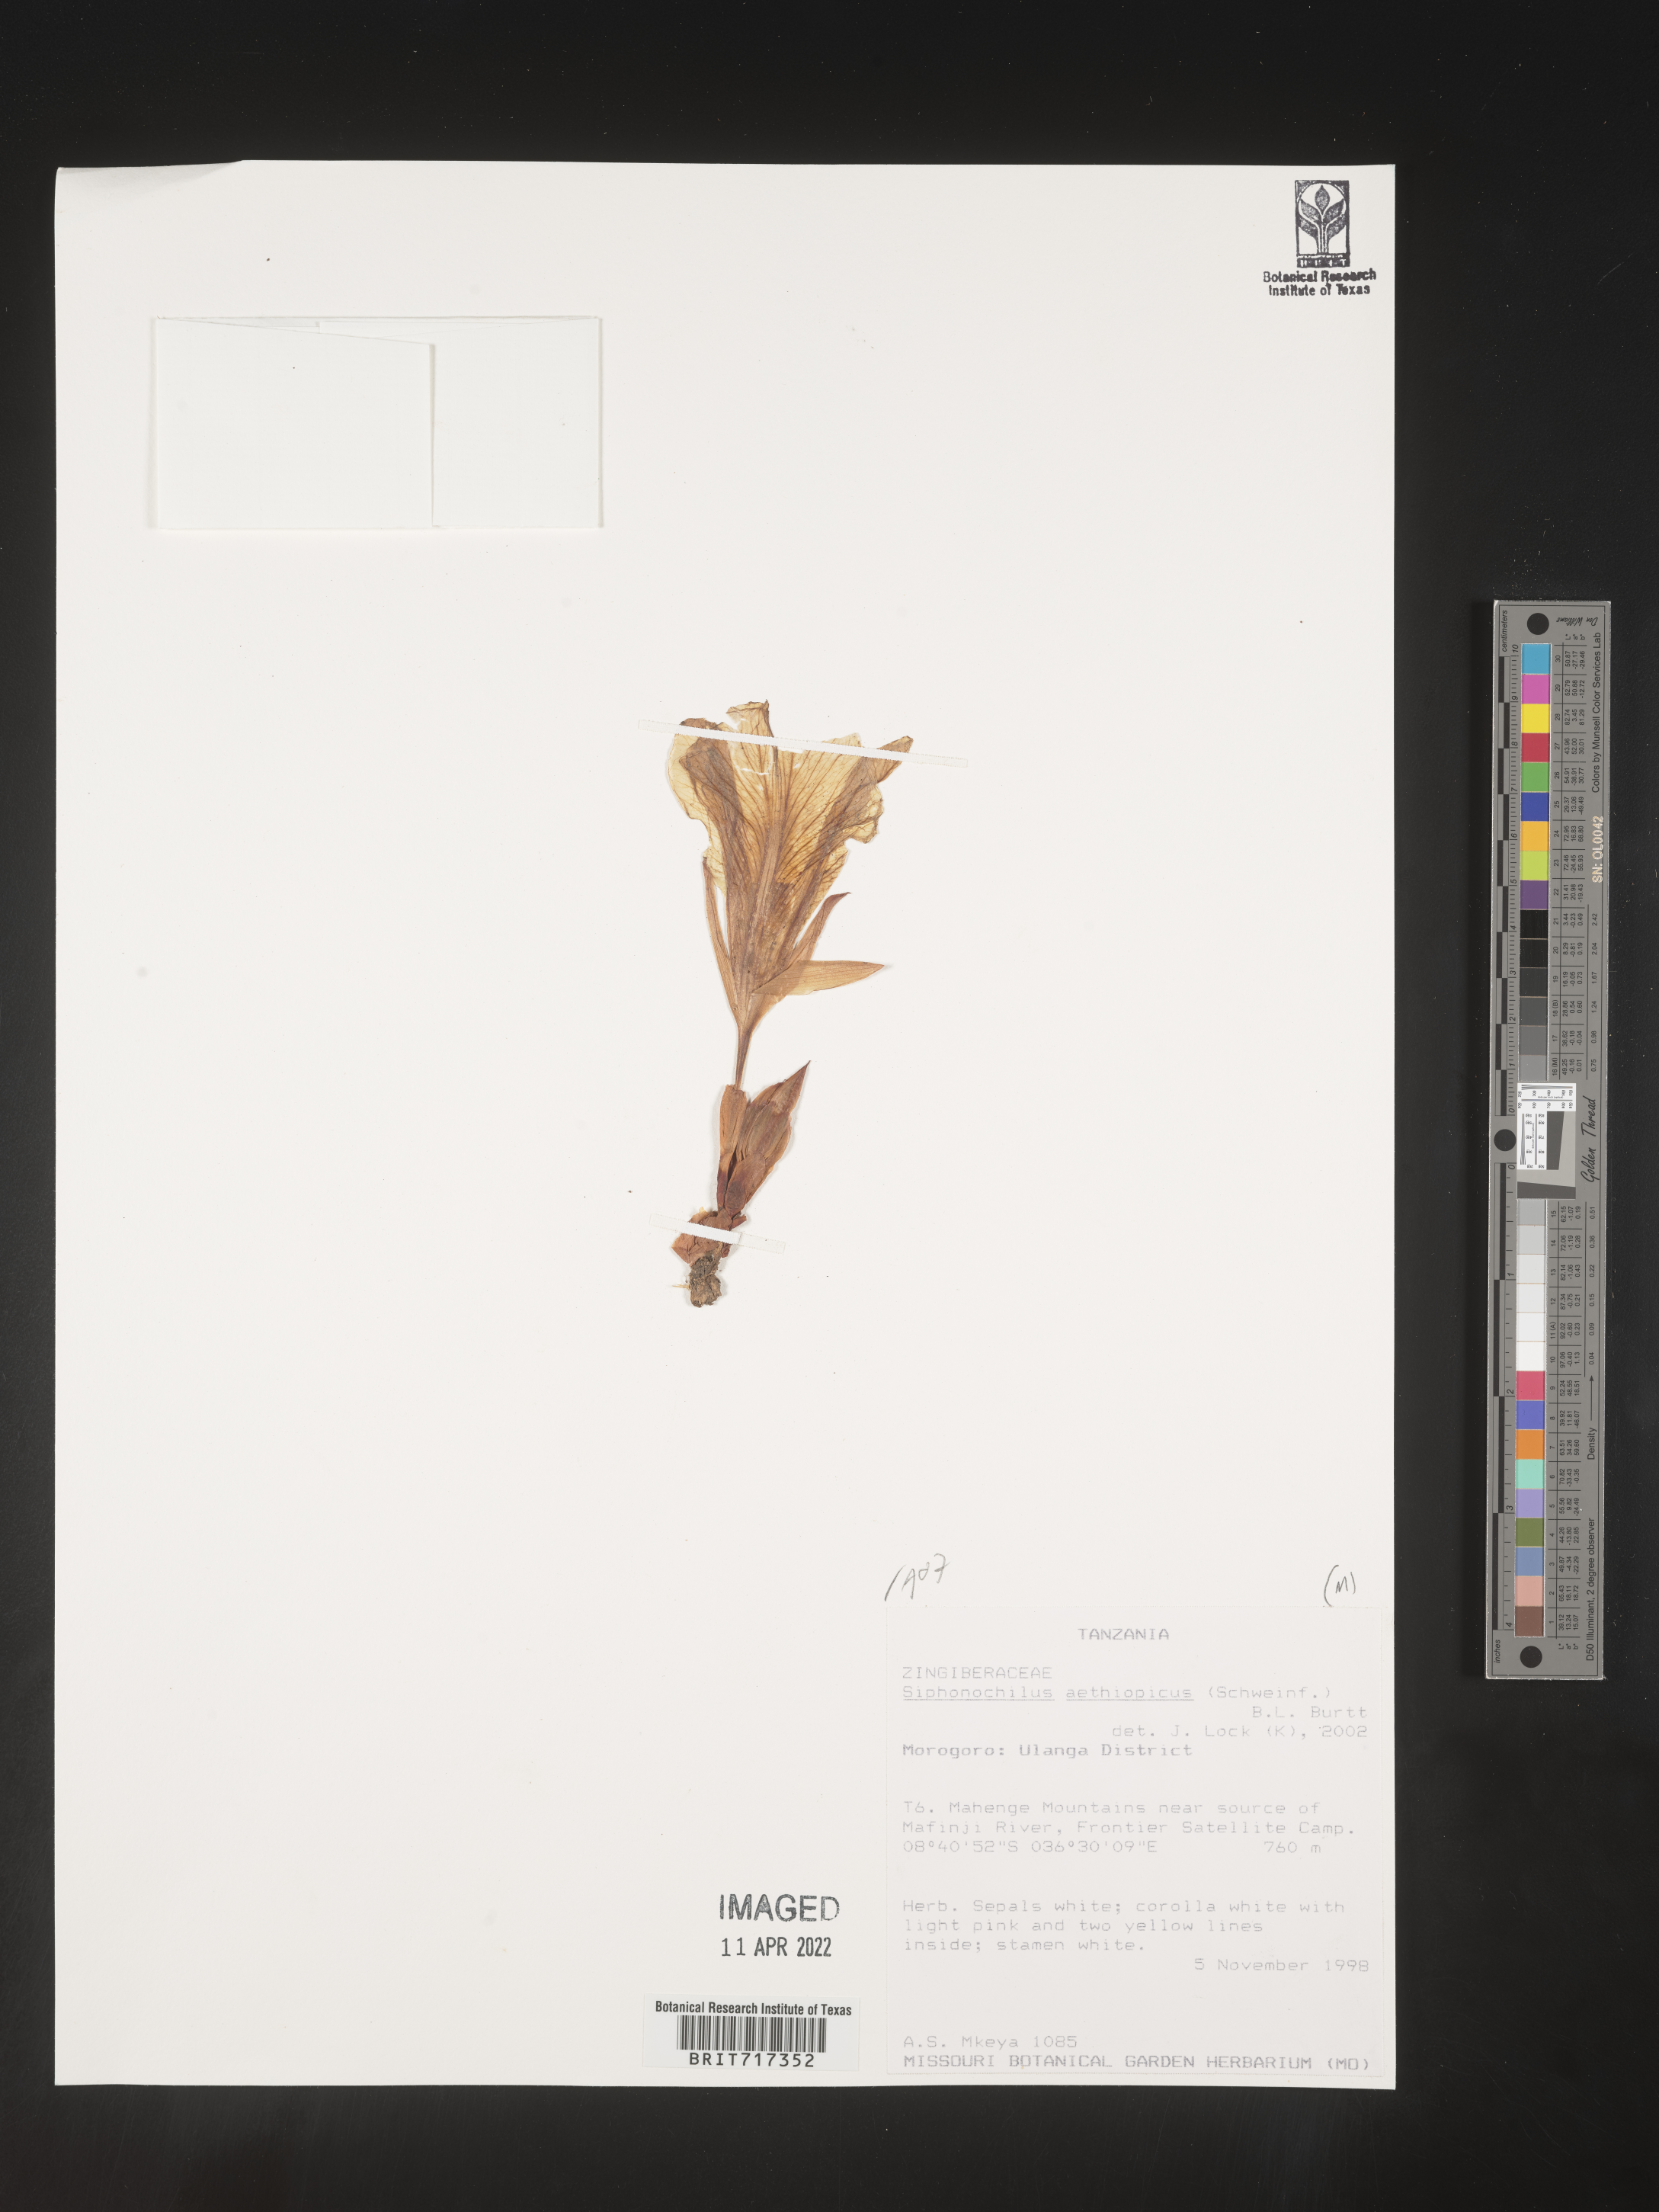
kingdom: Plantae
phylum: Tracheophyta
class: Liliopsida
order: Zingiberales
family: Zingiberaceae
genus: Siphonochilus
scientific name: Siphonochilus
